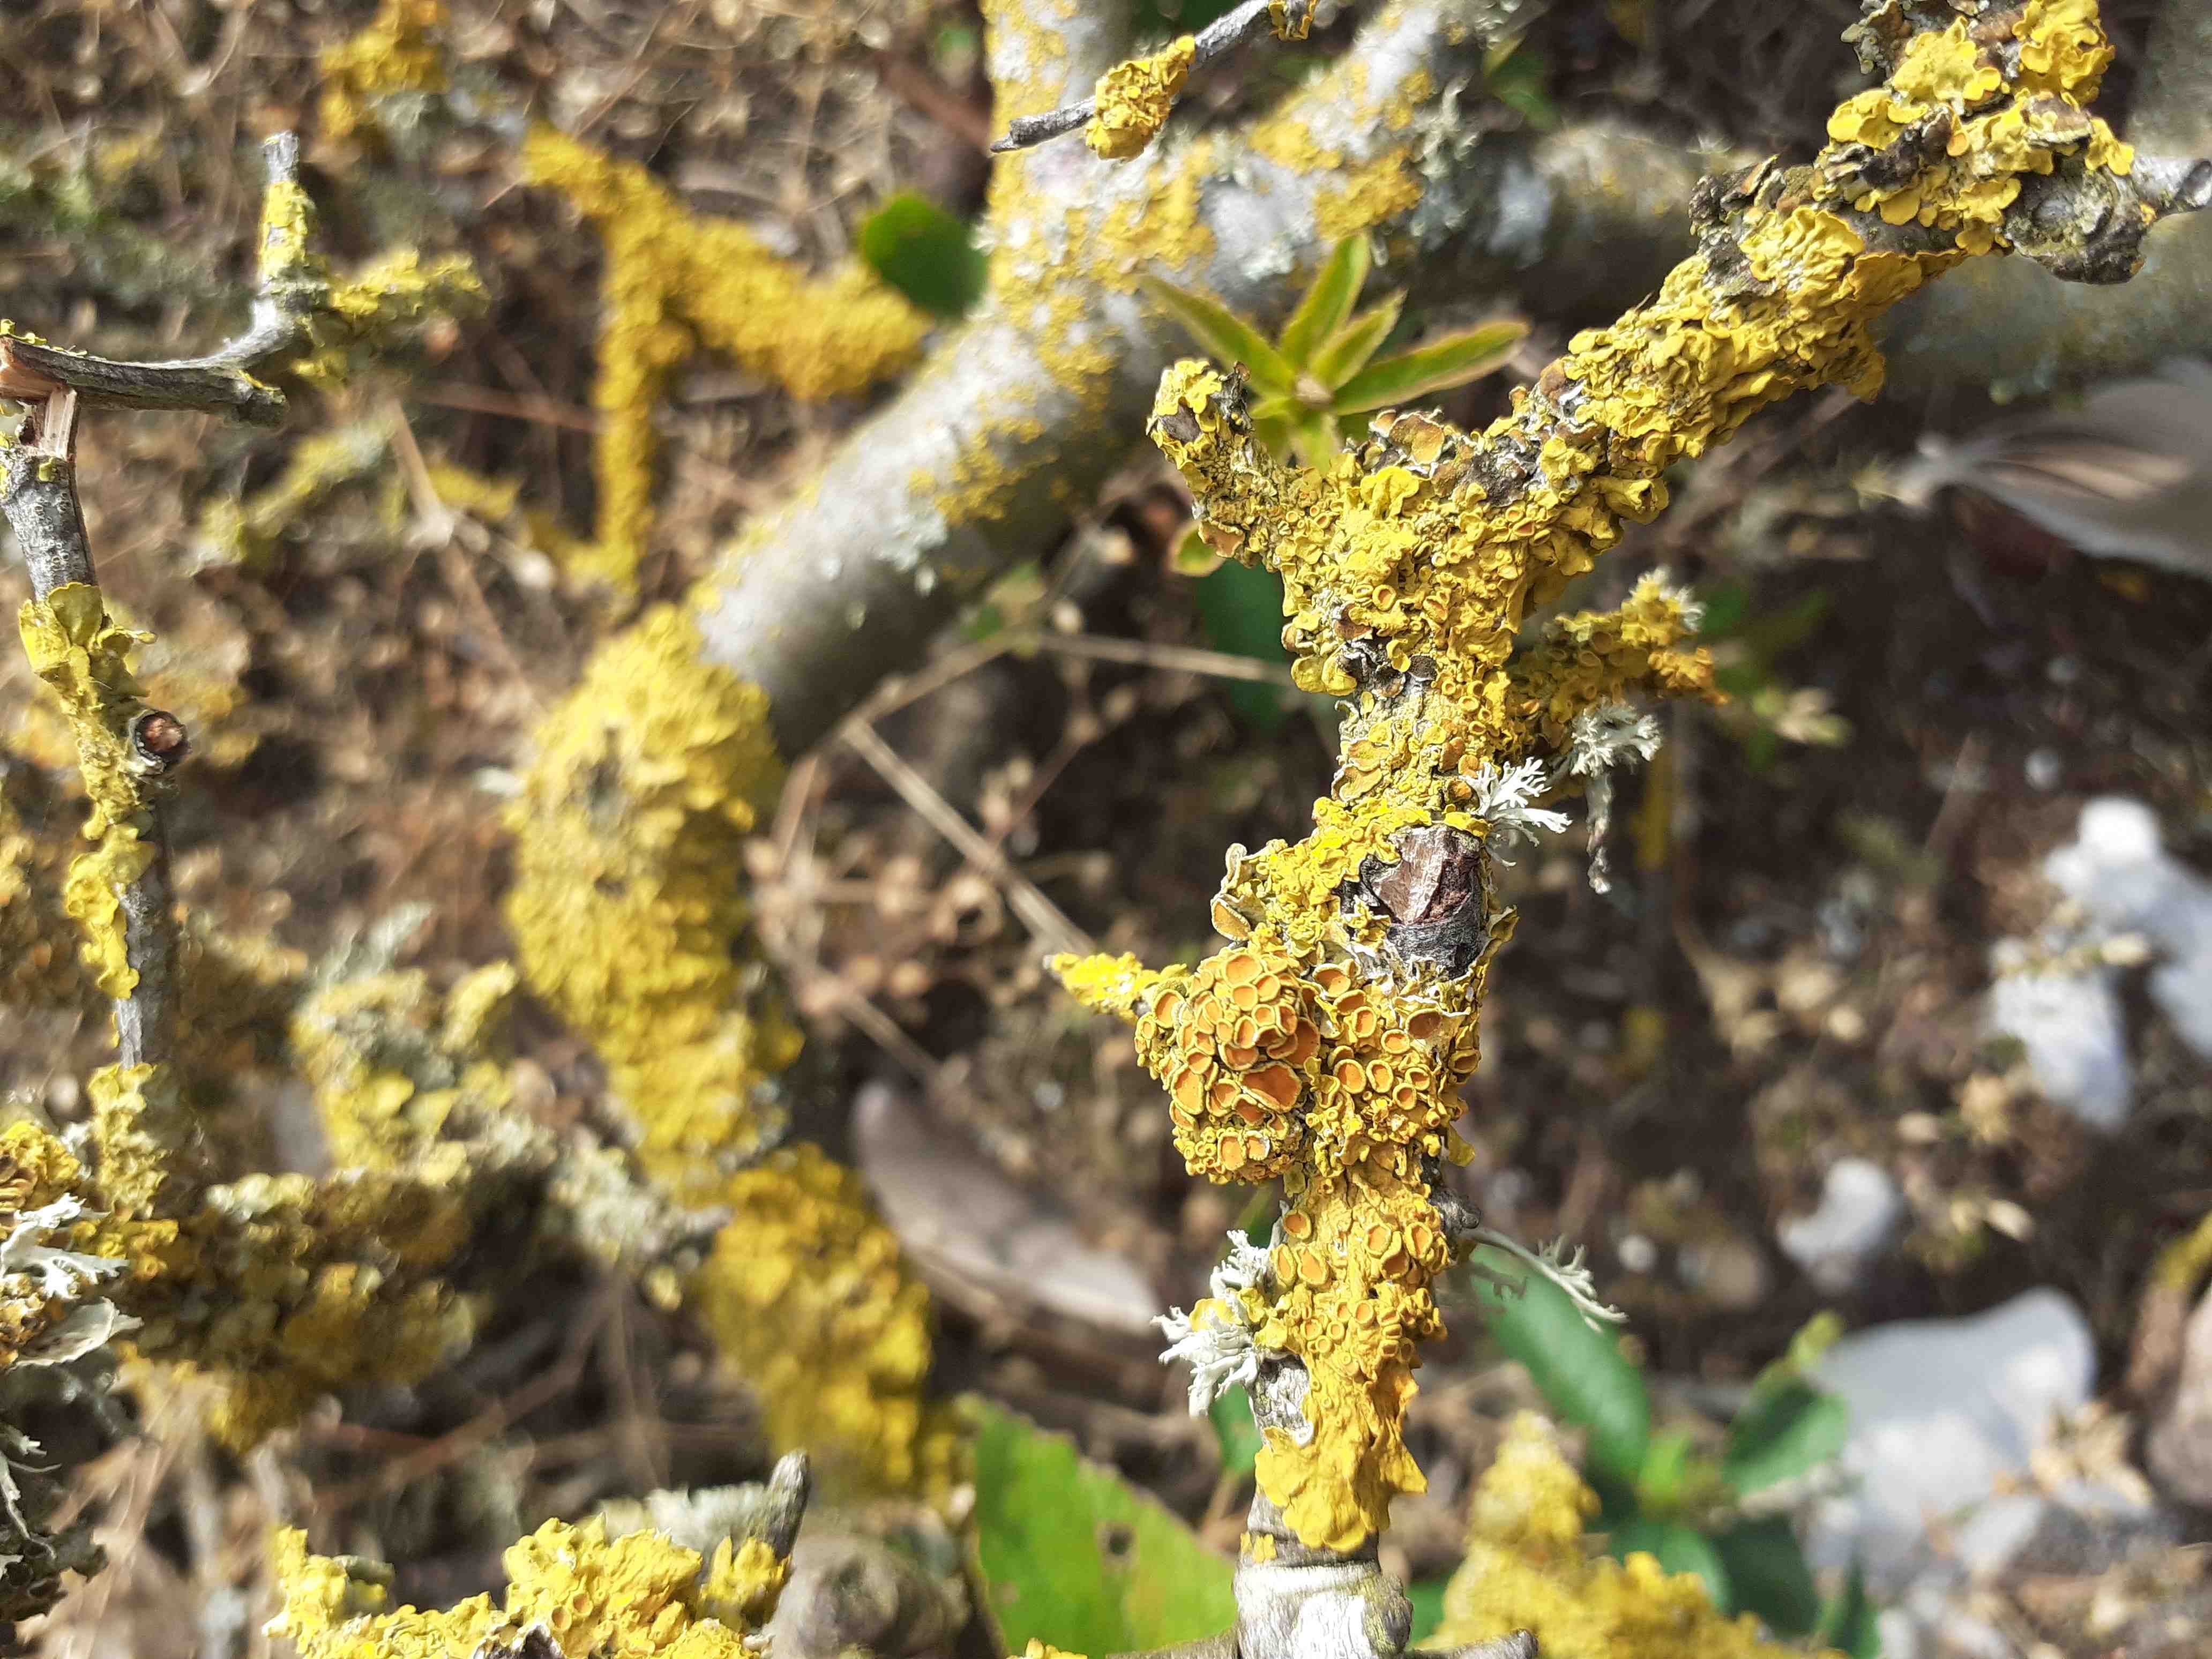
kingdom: Fungi
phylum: Ascomycota
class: Lecanoromycetes
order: Teloschistales
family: Teloschistaceae
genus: Xanthoria
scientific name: Xanthoria parietina
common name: almindelig væggelav
